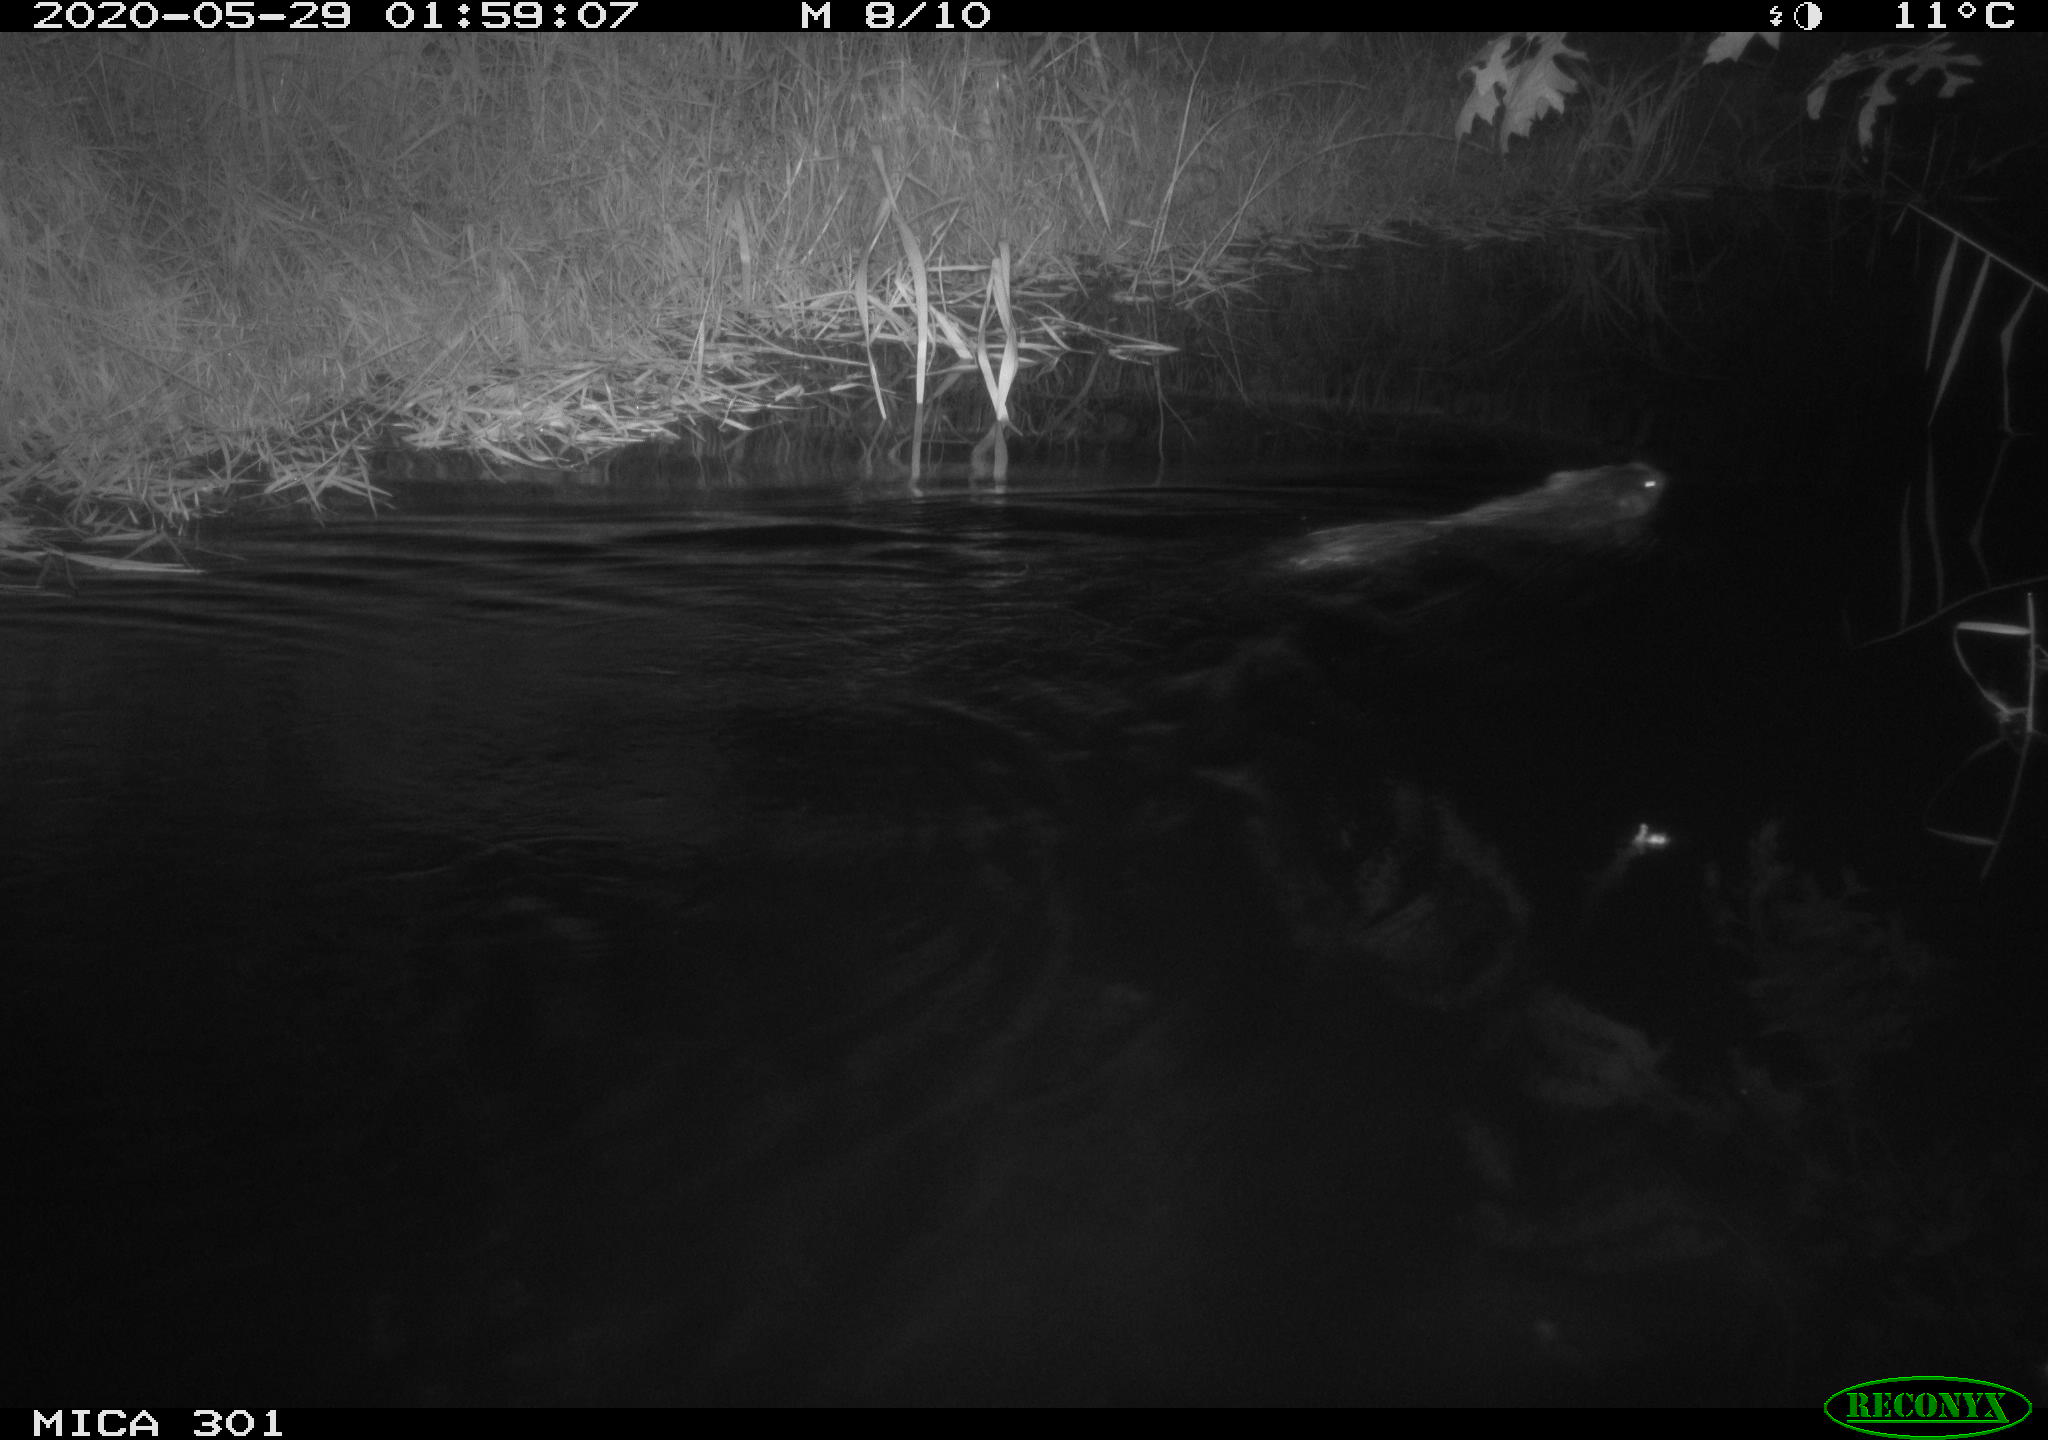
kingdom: Animalia
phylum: Chordata
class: Mammalia
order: Rodentia
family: Castoridae
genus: Castor
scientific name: Castor fiber
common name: Eurasian beaver
